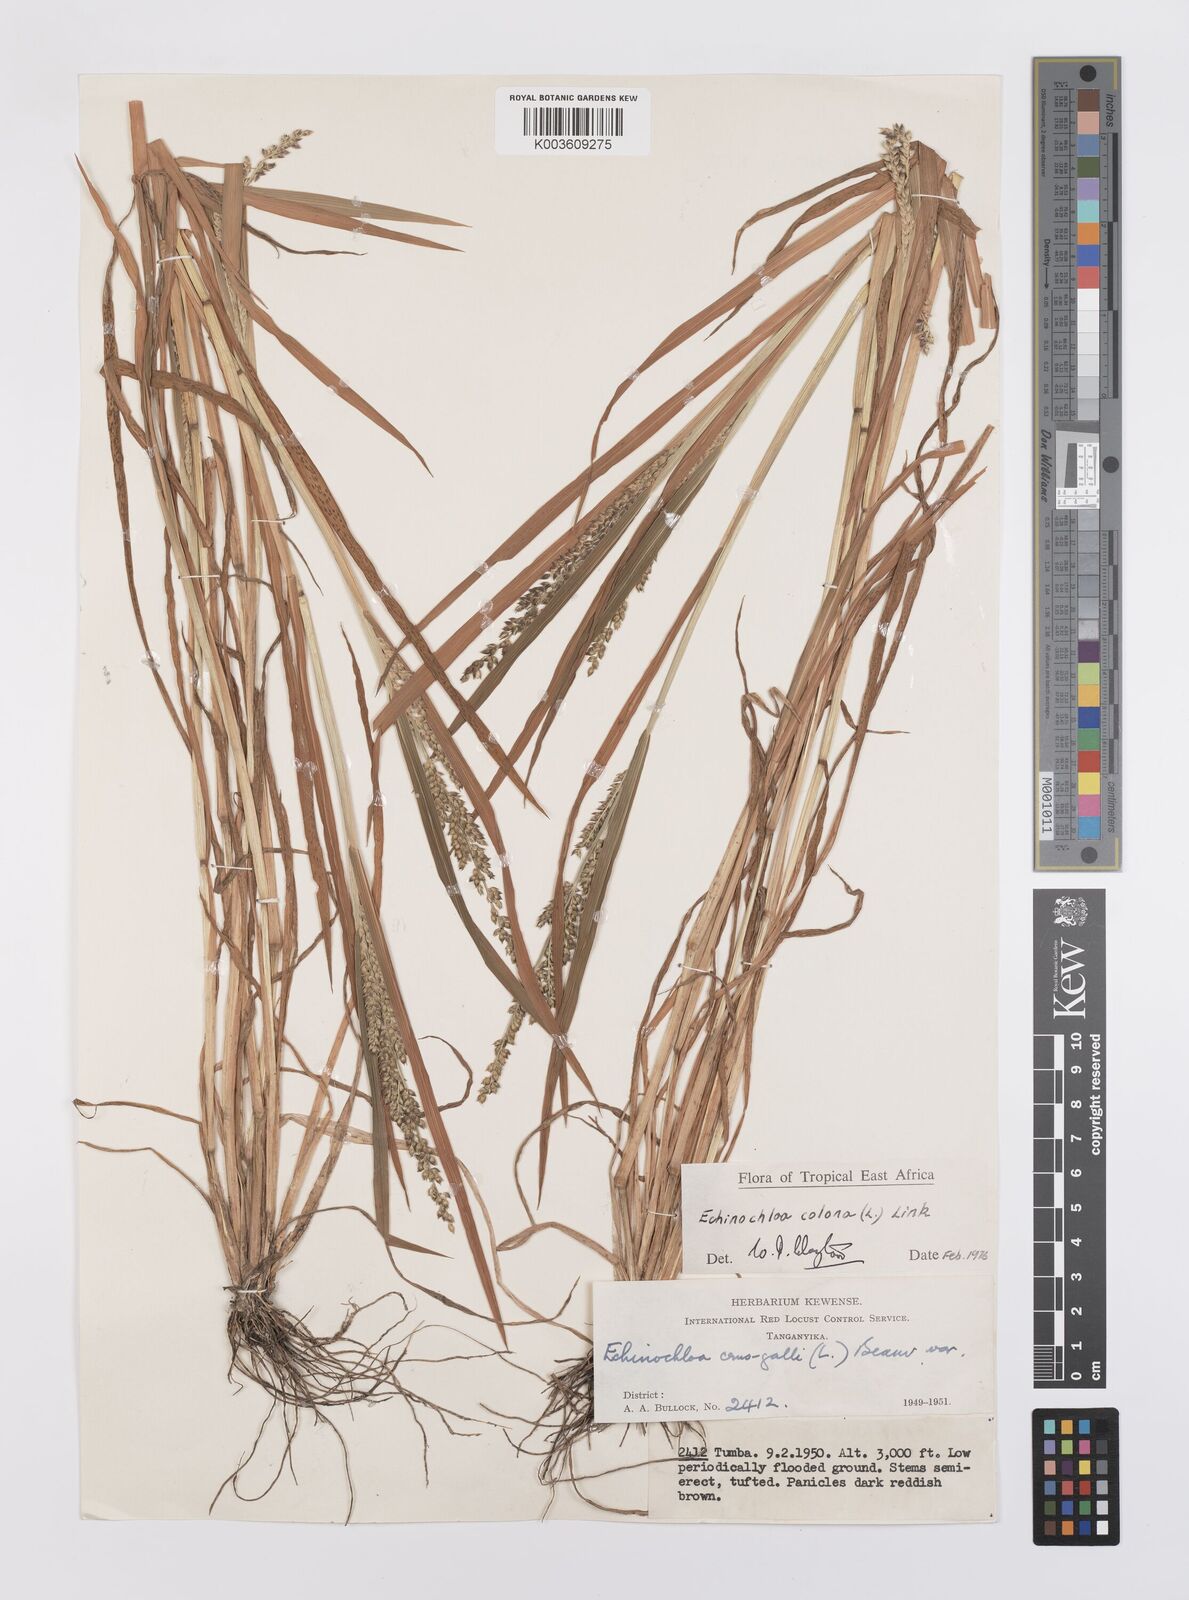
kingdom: Plantae
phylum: Tracheophyta
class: Liliopsida
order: Poales
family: Poaceae
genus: Echinochloa
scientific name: Echinochloa colonum
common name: Jungle rice
